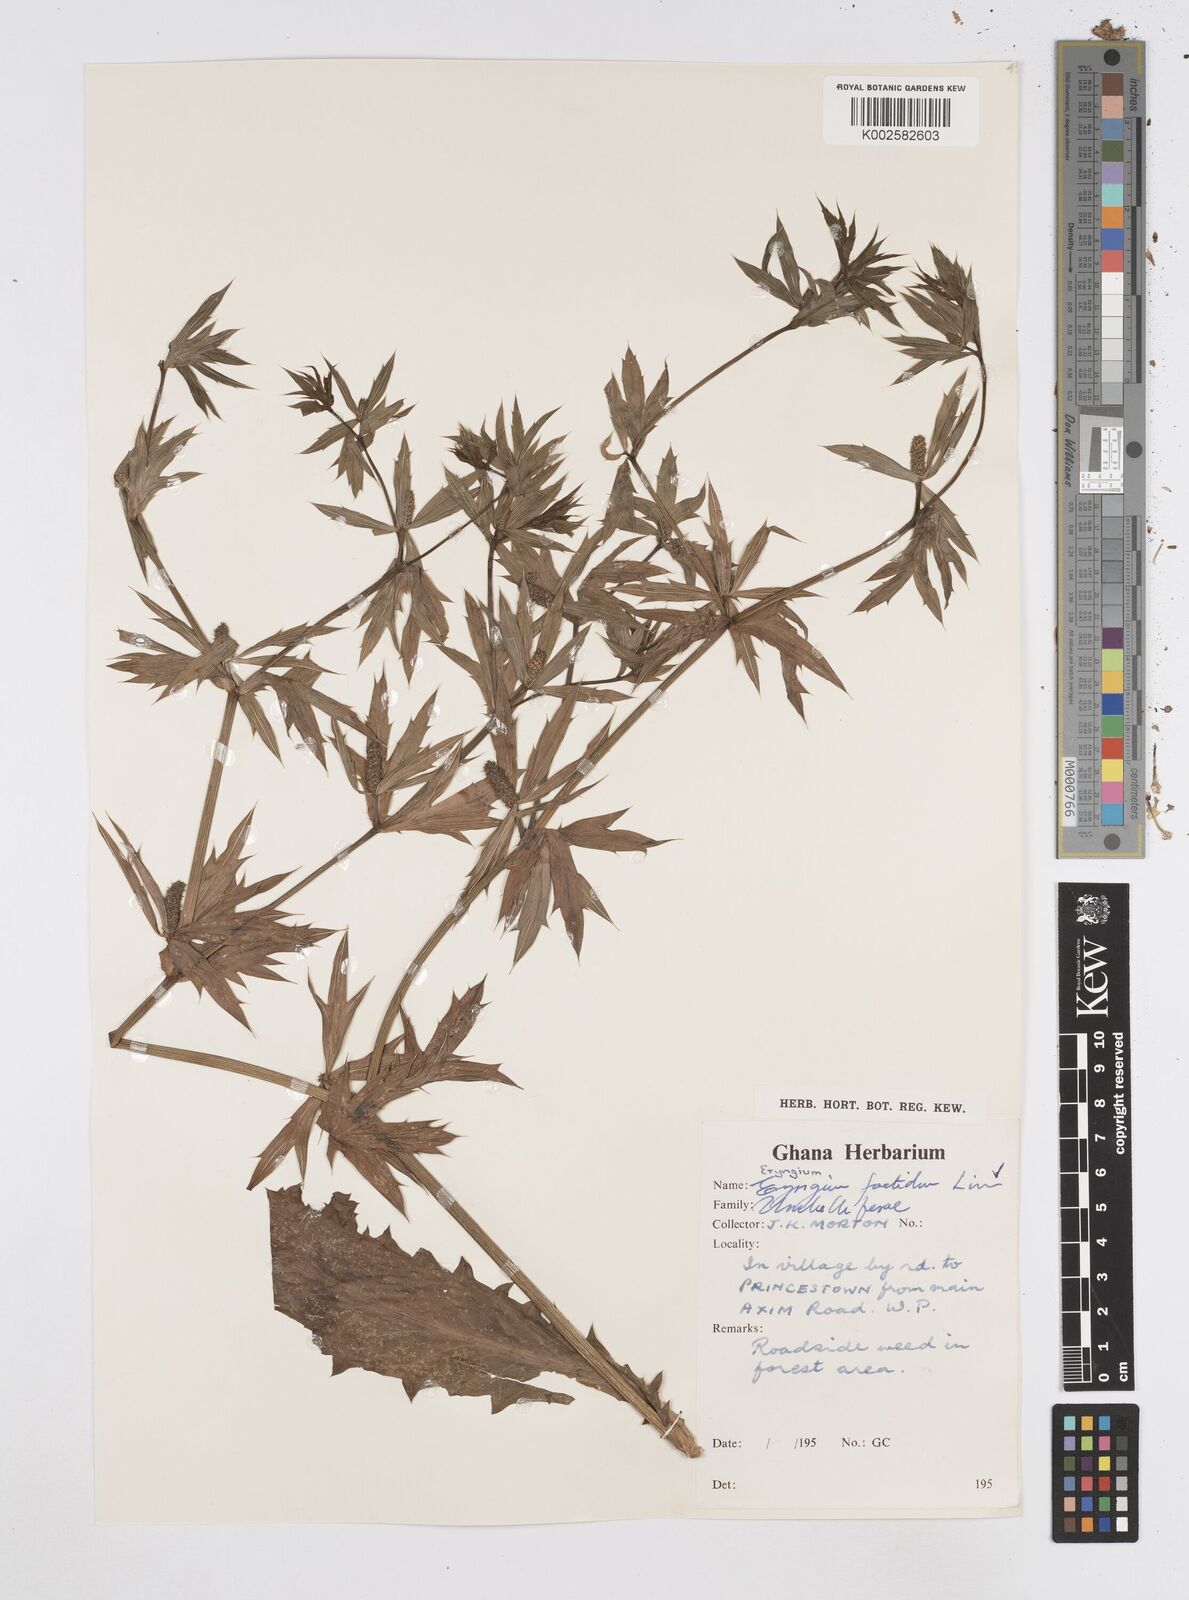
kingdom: Plantae
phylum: Tracheophyta
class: Magnoliopsida
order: Apiales
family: Apiaceae
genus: Eryngium
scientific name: Eryngium foetidum
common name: Fitweed
